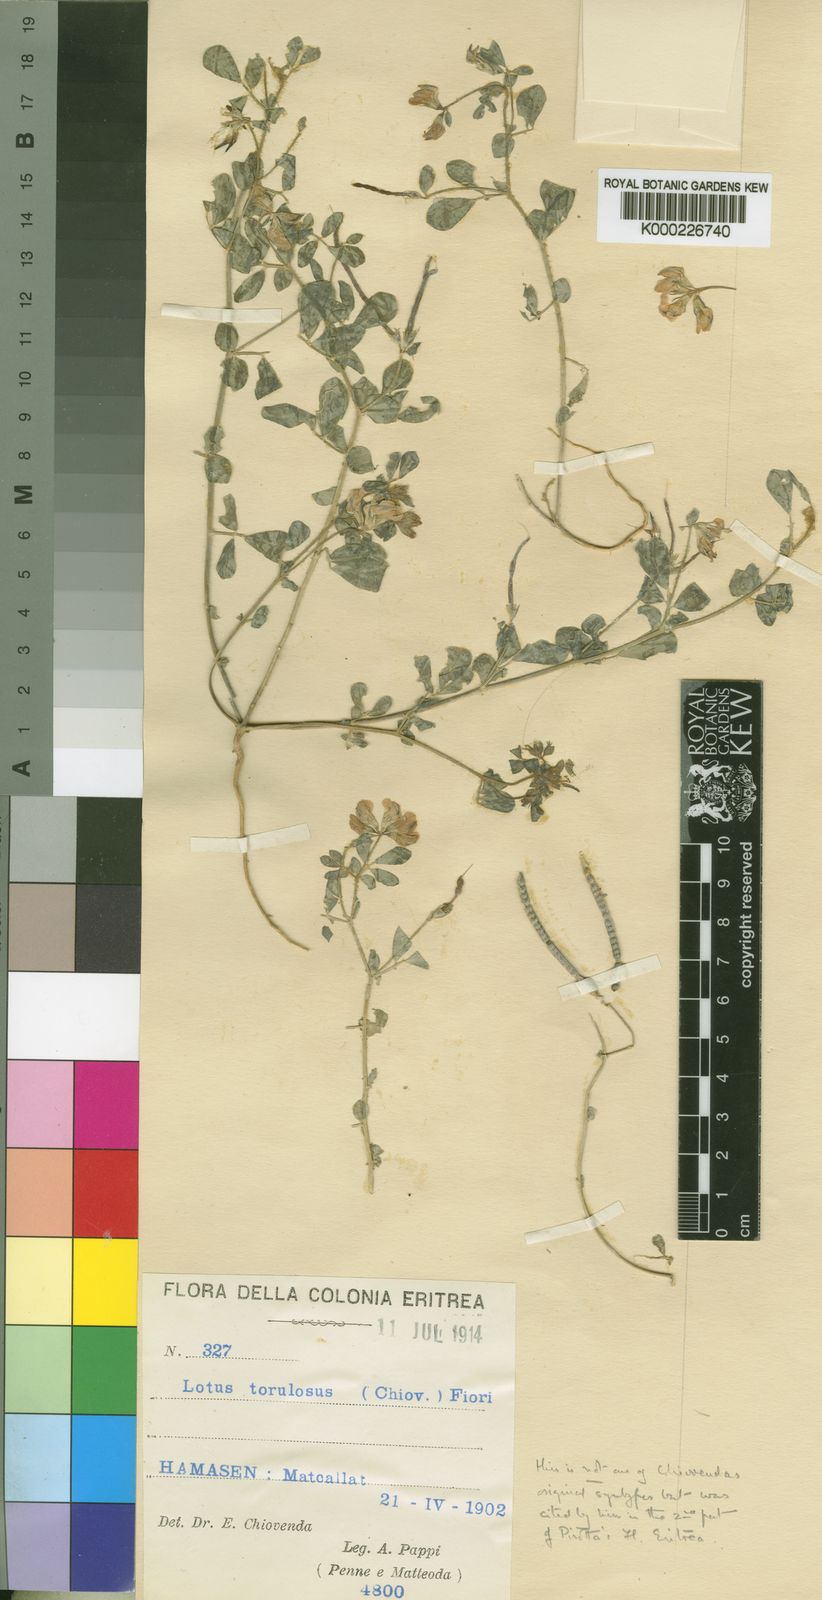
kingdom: Plantae
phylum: Tracheophyta
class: Magnoliopsida
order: Fabales
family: Fabaceae
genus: Lotus
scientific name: Lotus torulosus
